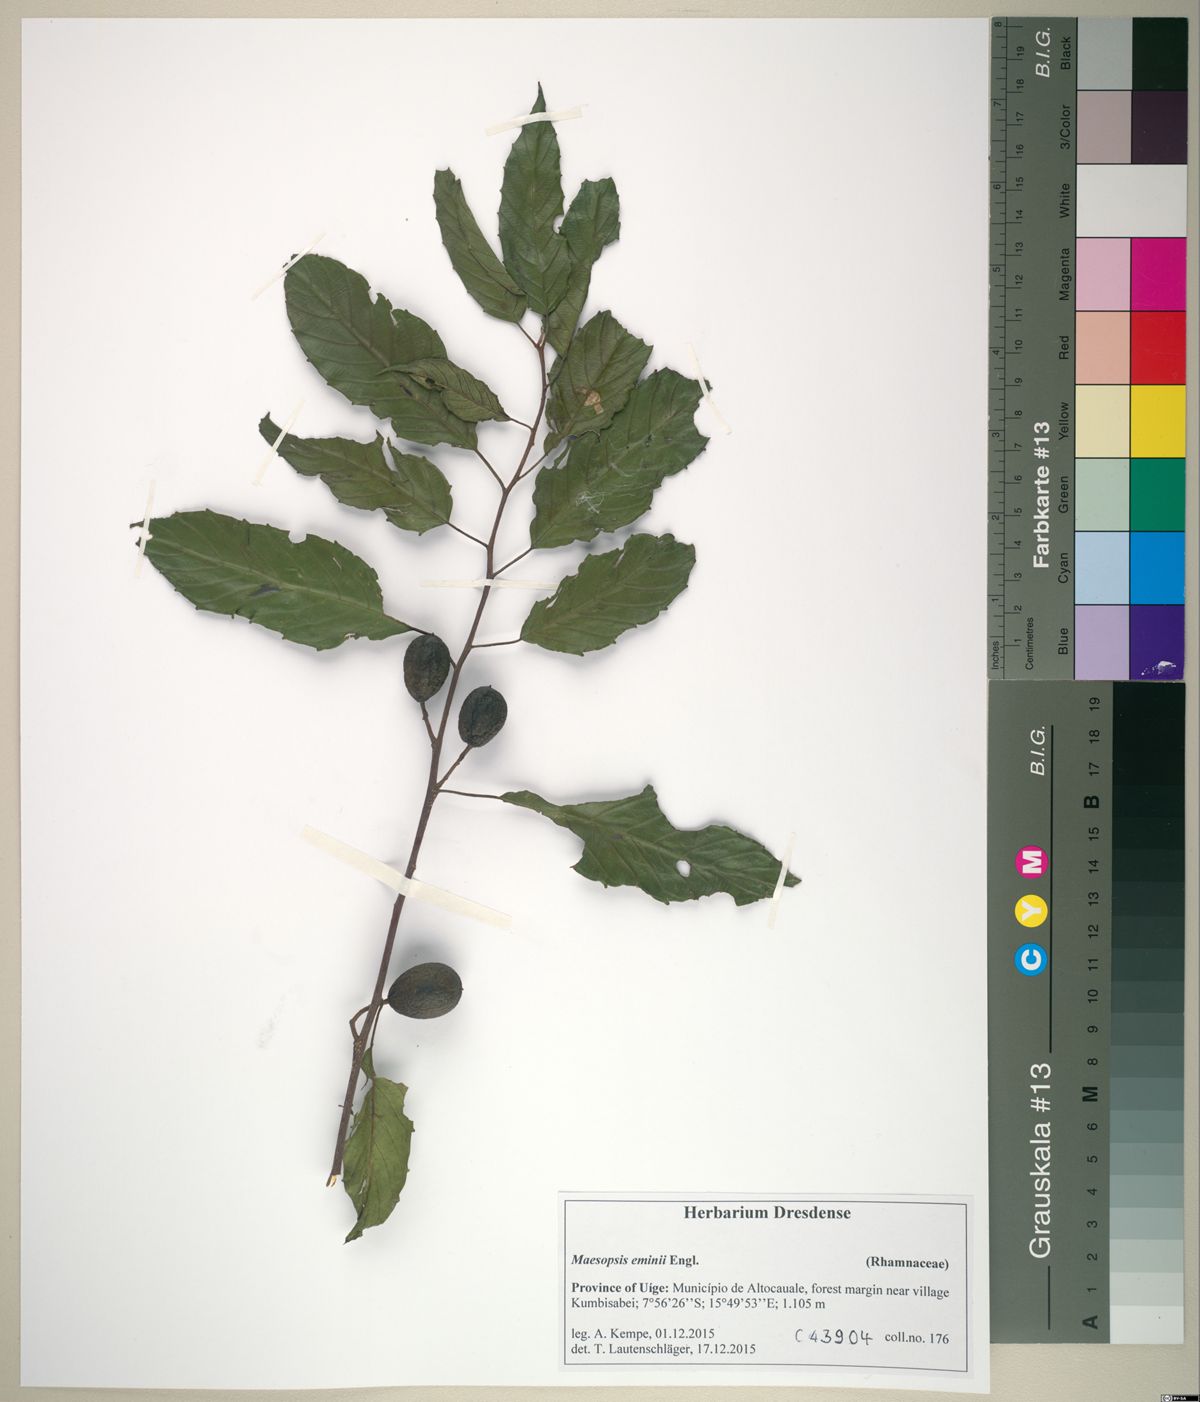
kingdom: Plantae
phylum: Tracheophyta
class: Magnoliopsida
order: Rosales
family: Rhamnaceae
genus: Maesopsis
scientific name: Maesopsis eminii
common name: Umbrella tree
